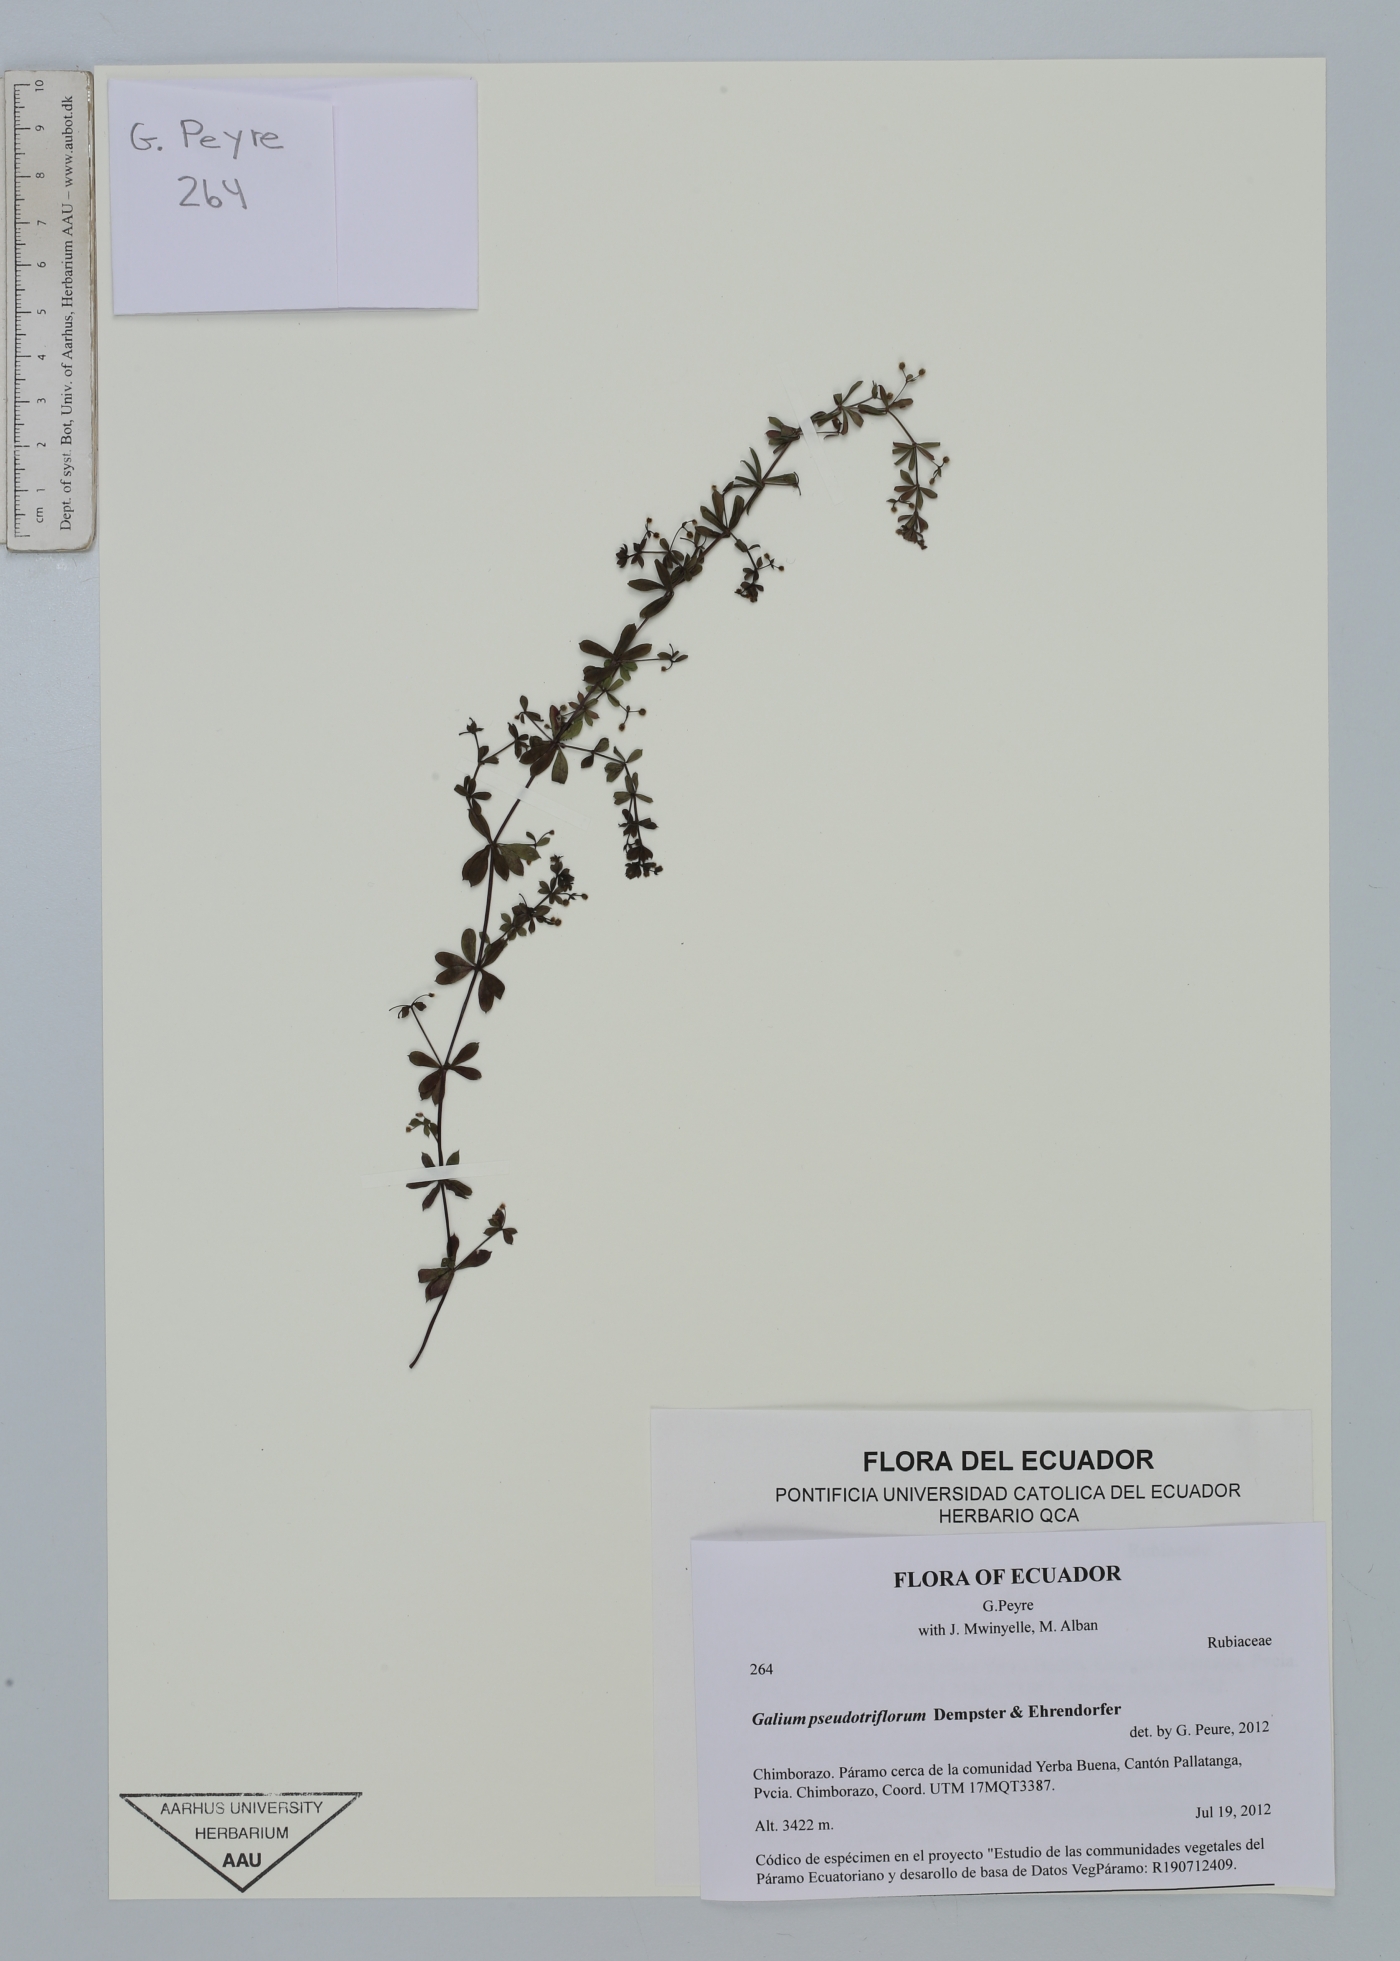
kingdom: Plantae
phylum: Tracheophyta
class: Magnoliopsida
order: Gentianales
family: Rubiaceae
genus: Galium
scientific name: Galium pseudotriflorum
